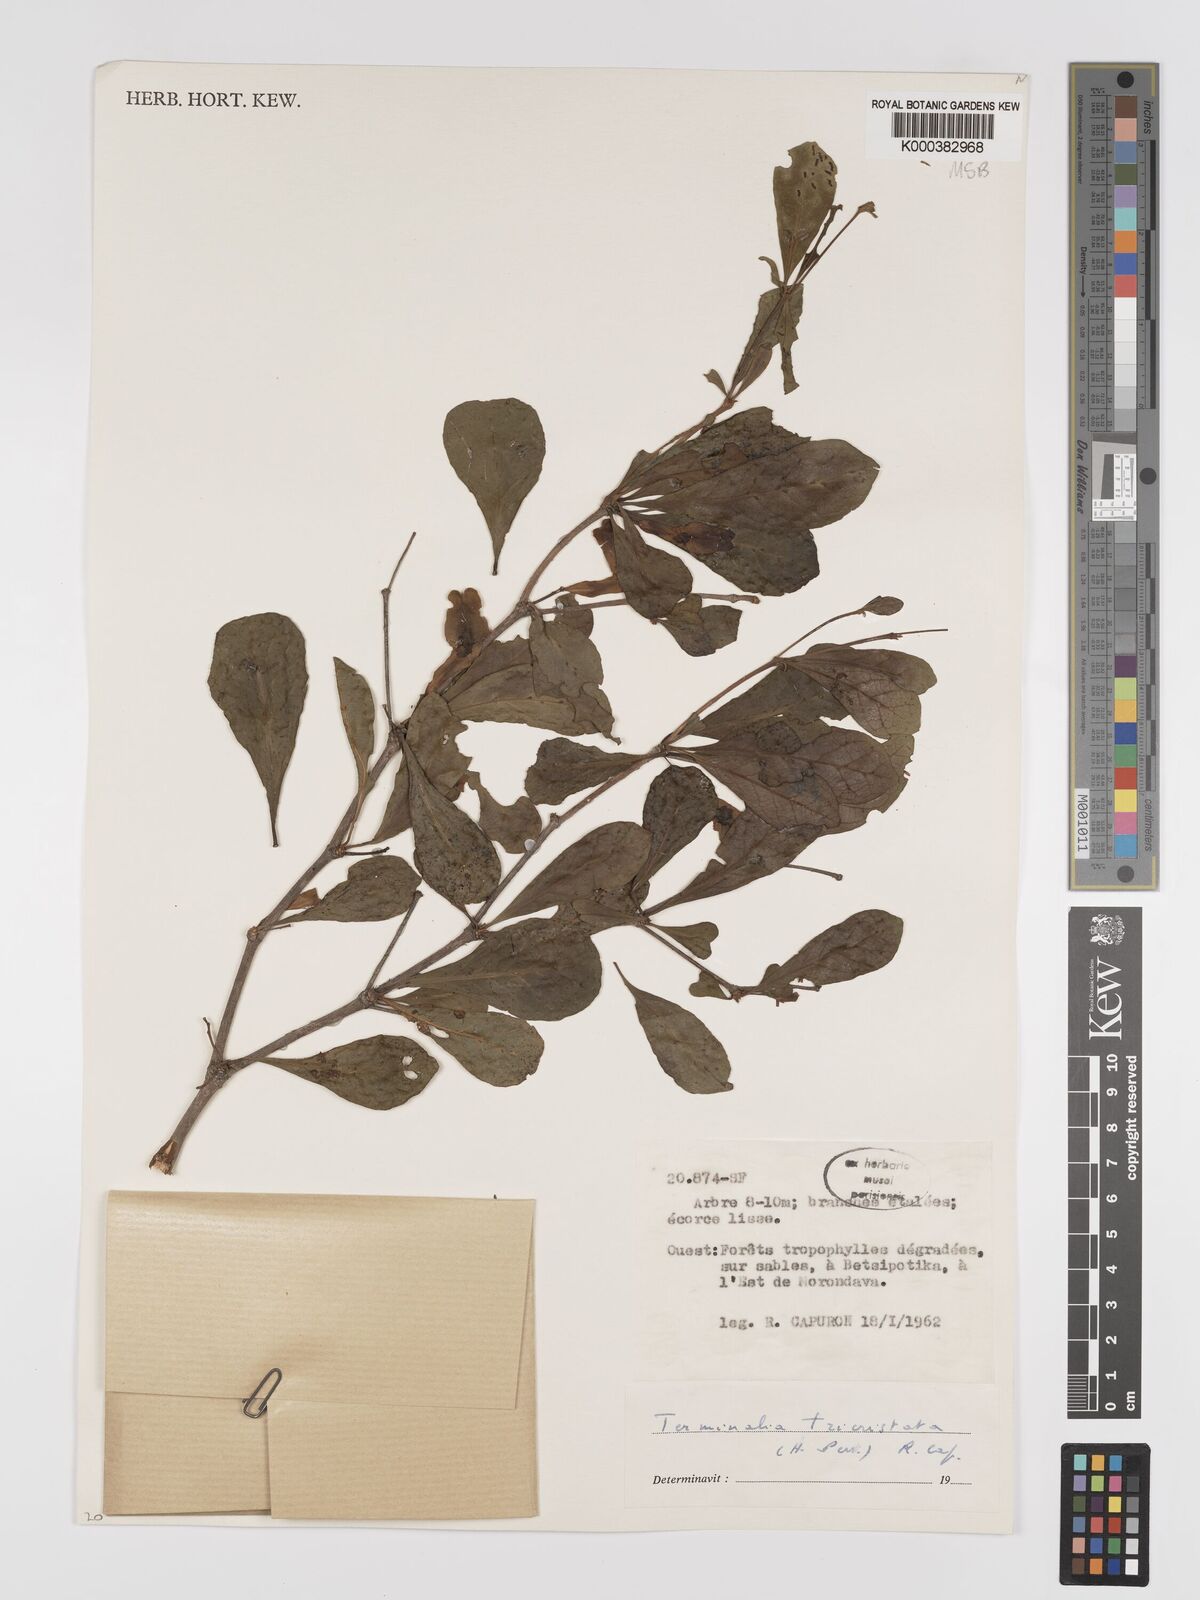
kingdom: Plantae
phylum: Tracheophyta
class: Magnoliopsida
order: Myrtales
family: Combretaceae
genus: Terminalia
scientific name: Terminalia
